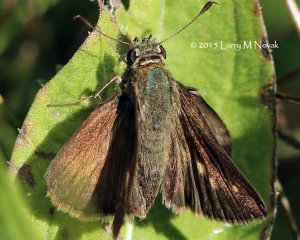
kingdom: Animalia
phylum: Arthropoda
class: Insecta
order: Lepidoptera
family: Hesperiidae
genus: Polites
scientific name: Polites egeremet
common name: Northern Broken-Dash
